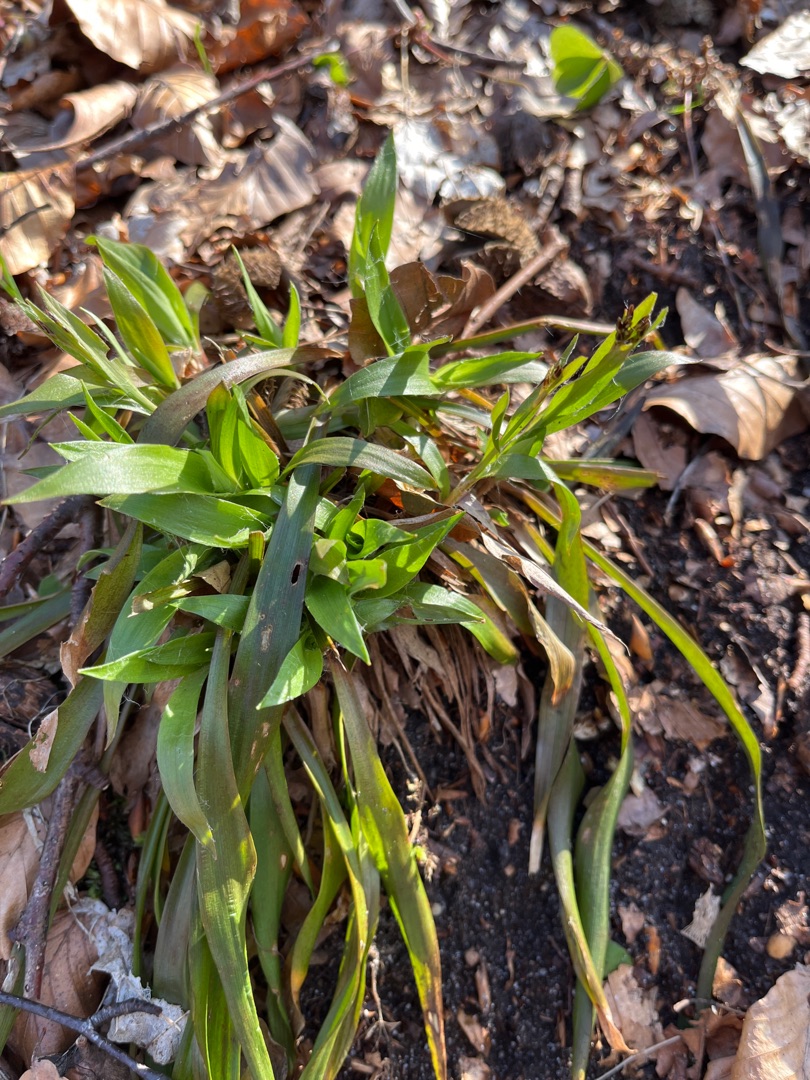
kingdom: Plantae
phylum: Tracheophyta
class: Liliopsida
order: Poales
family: Juncaceae
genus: Luzula
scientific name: Luzula pilosa
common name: Håret frytle
